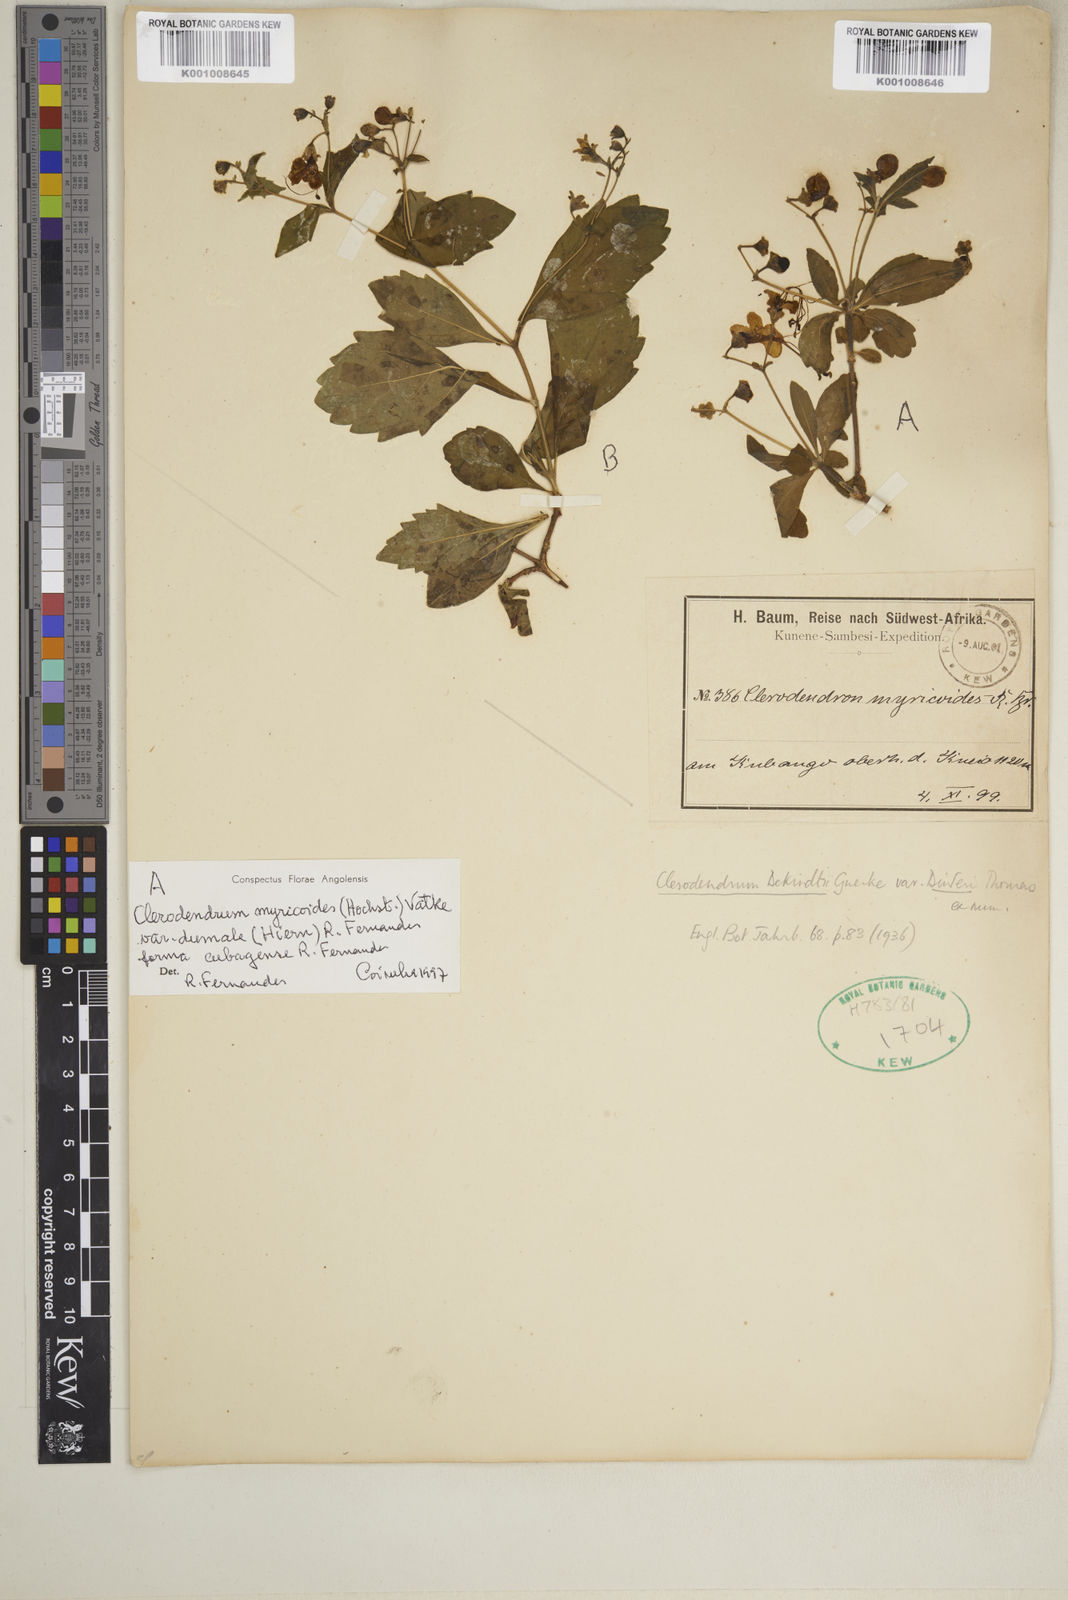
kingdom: Plantae
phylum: Tracheophyta
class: Magnoliopsida
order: Lamiales
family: Lamiaceae
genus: Rotheca
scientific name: Rotheca myricoides
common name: Cats-whiskers
